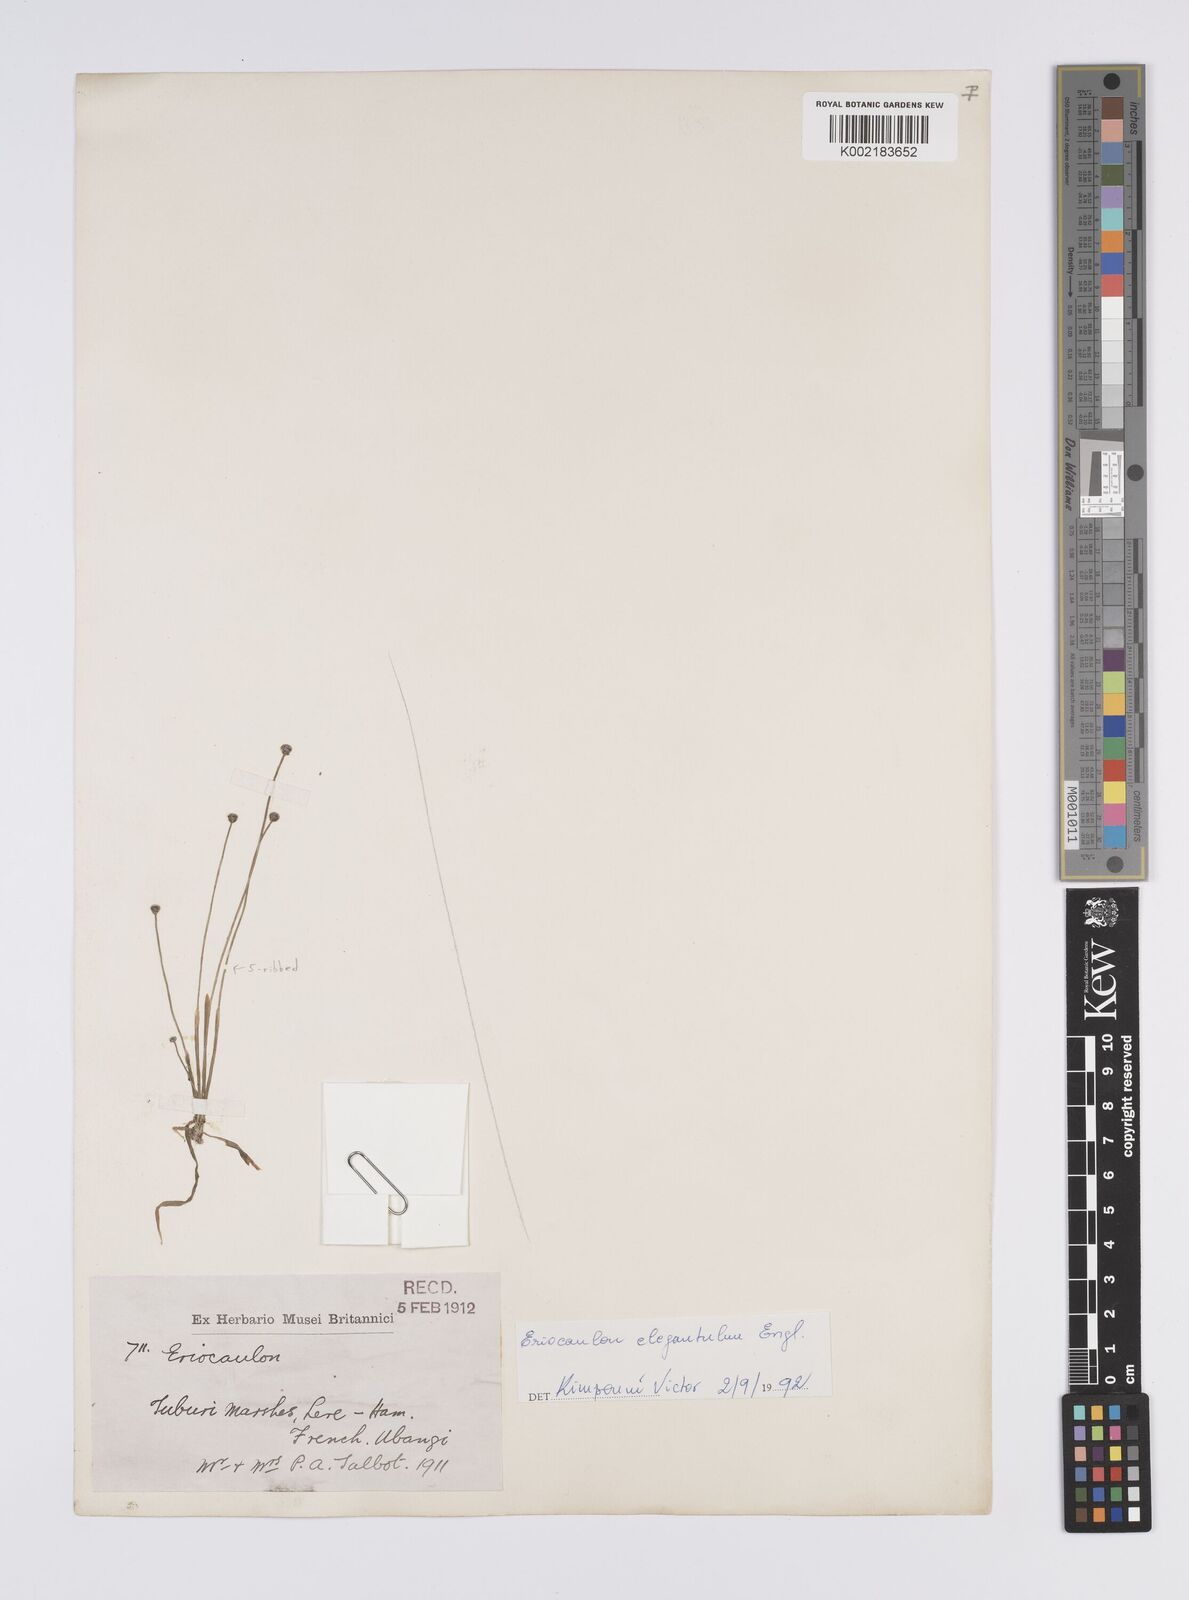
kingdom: Plantae
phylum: Tracheophyta
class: Liliopsida
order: Poales
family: Eriocaulaceae
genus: Eriocaulon
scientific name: Eriocaulon elegantulum
